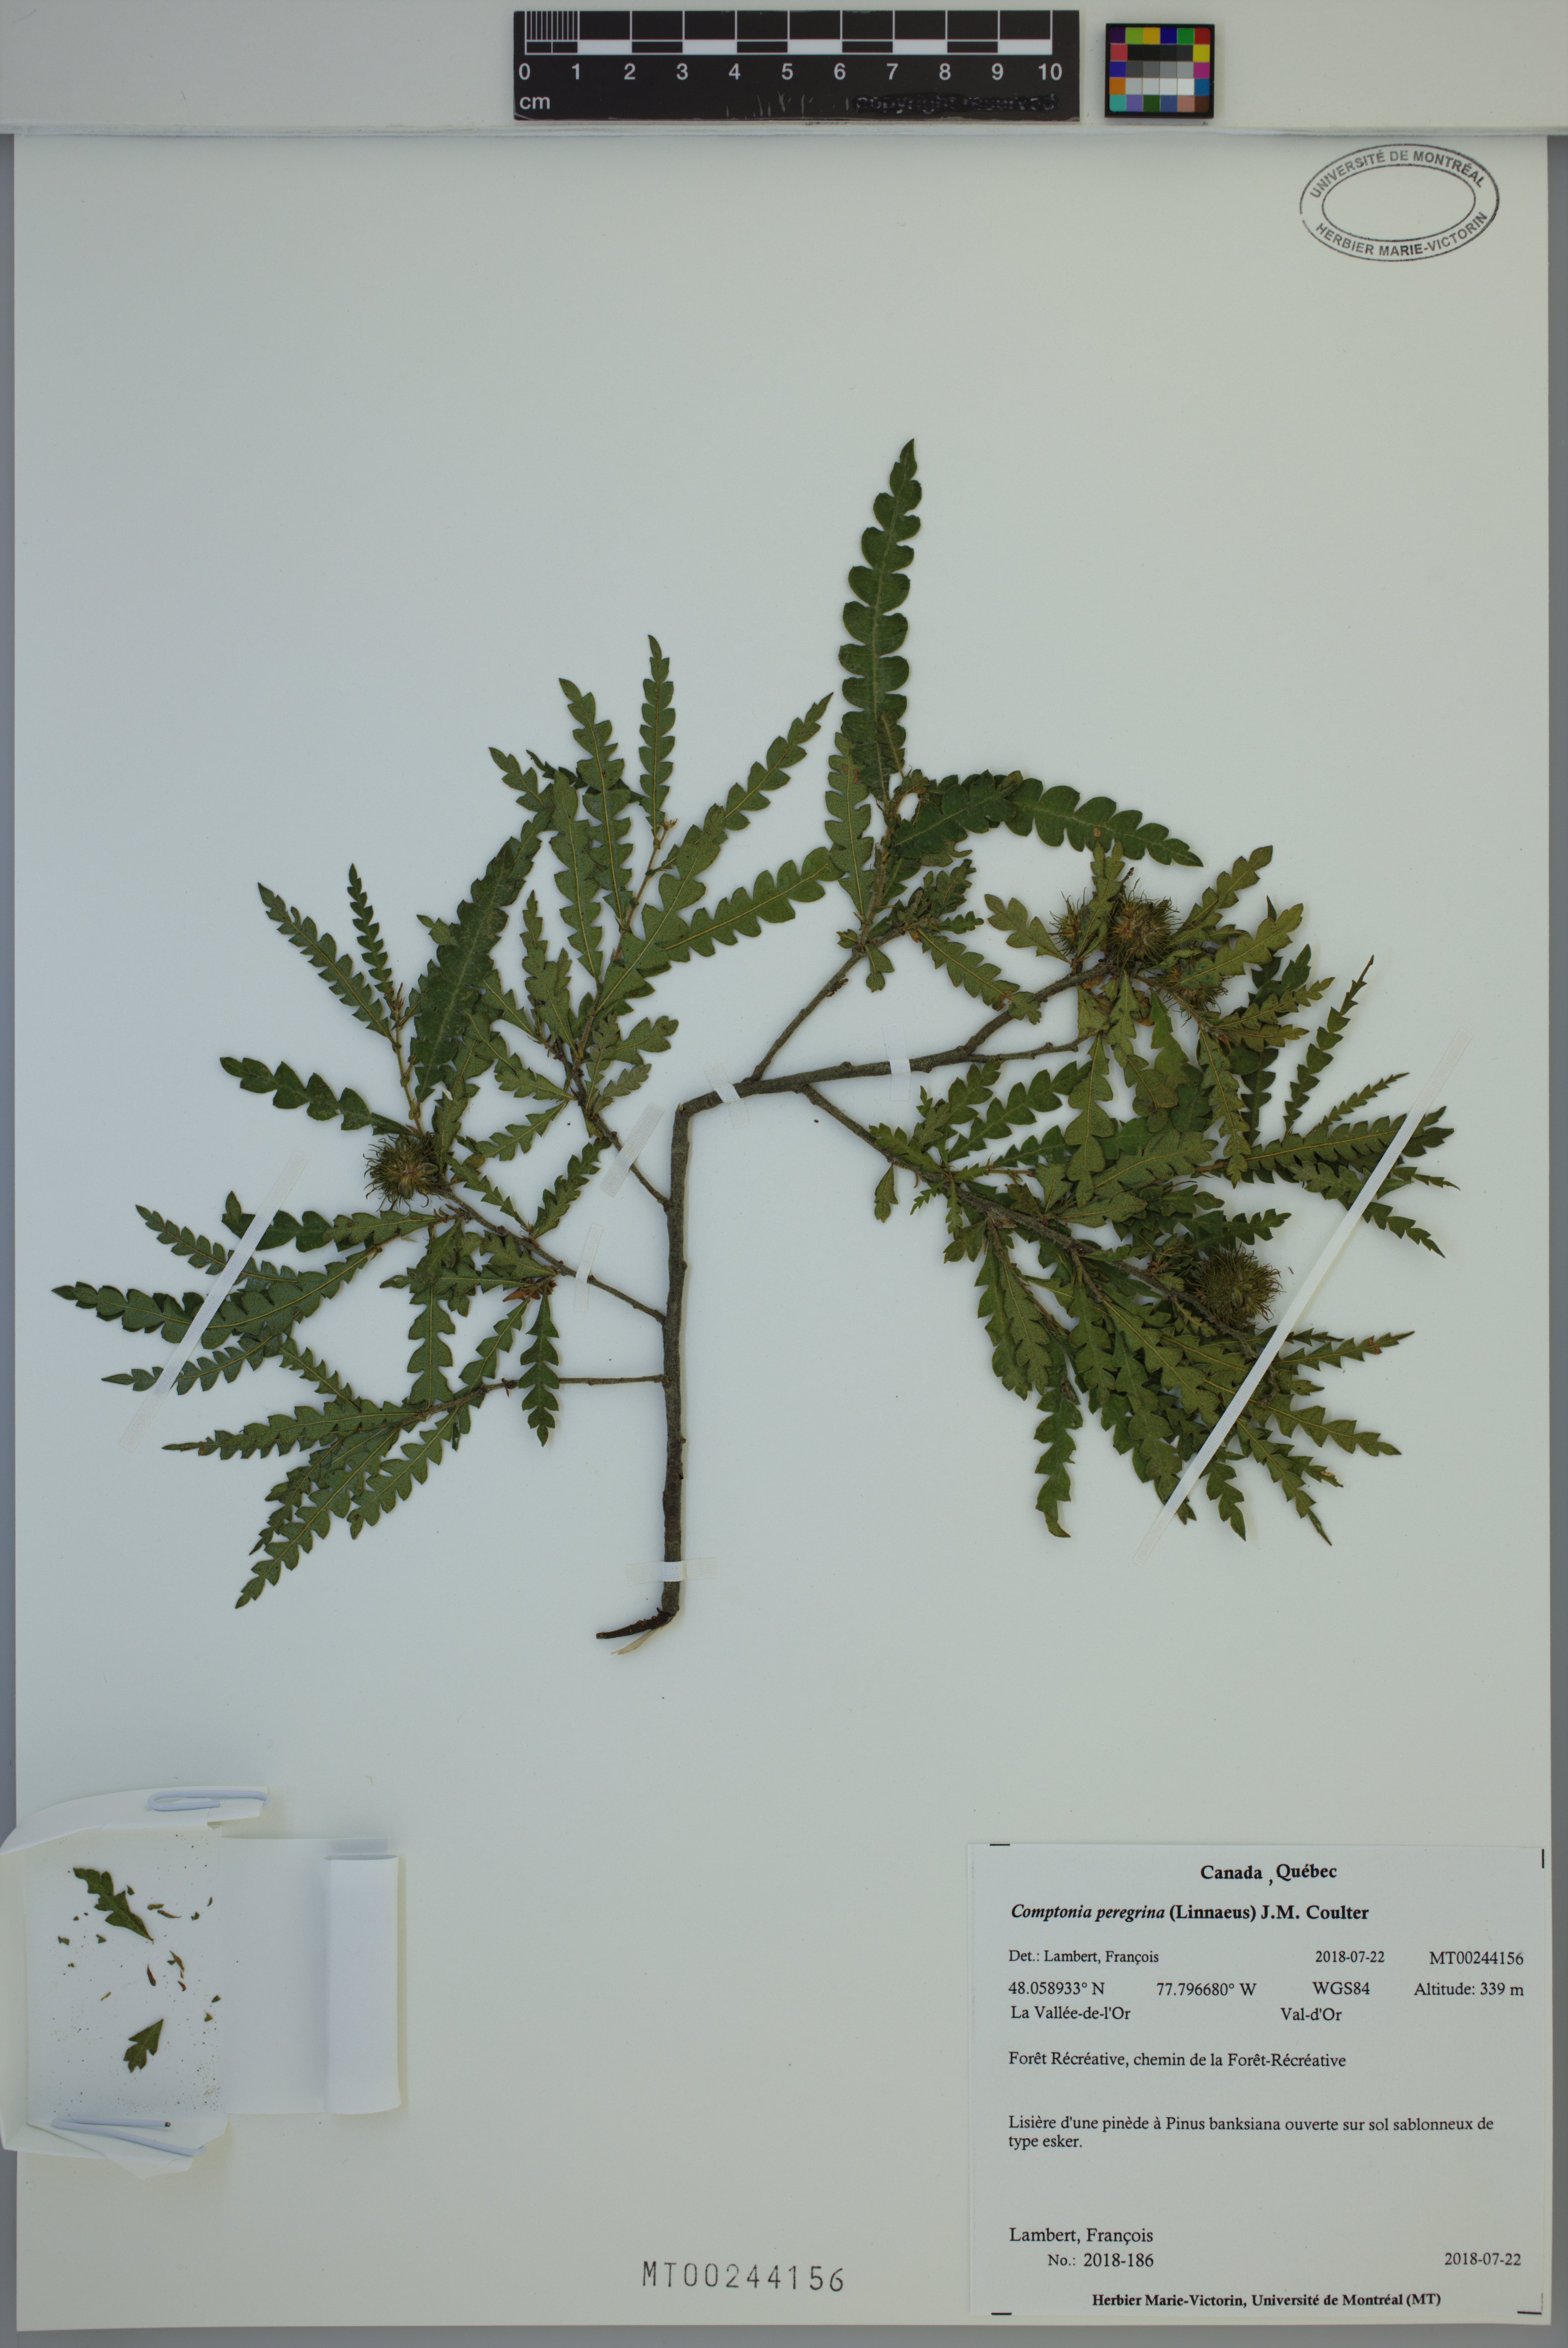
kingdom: Plantae
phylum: Tracheophyta
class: Magnoliopsida
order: Fagales
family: Myricaceae
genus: Comptonia
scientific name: Comptonia peregrina
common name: Sweet-fern
